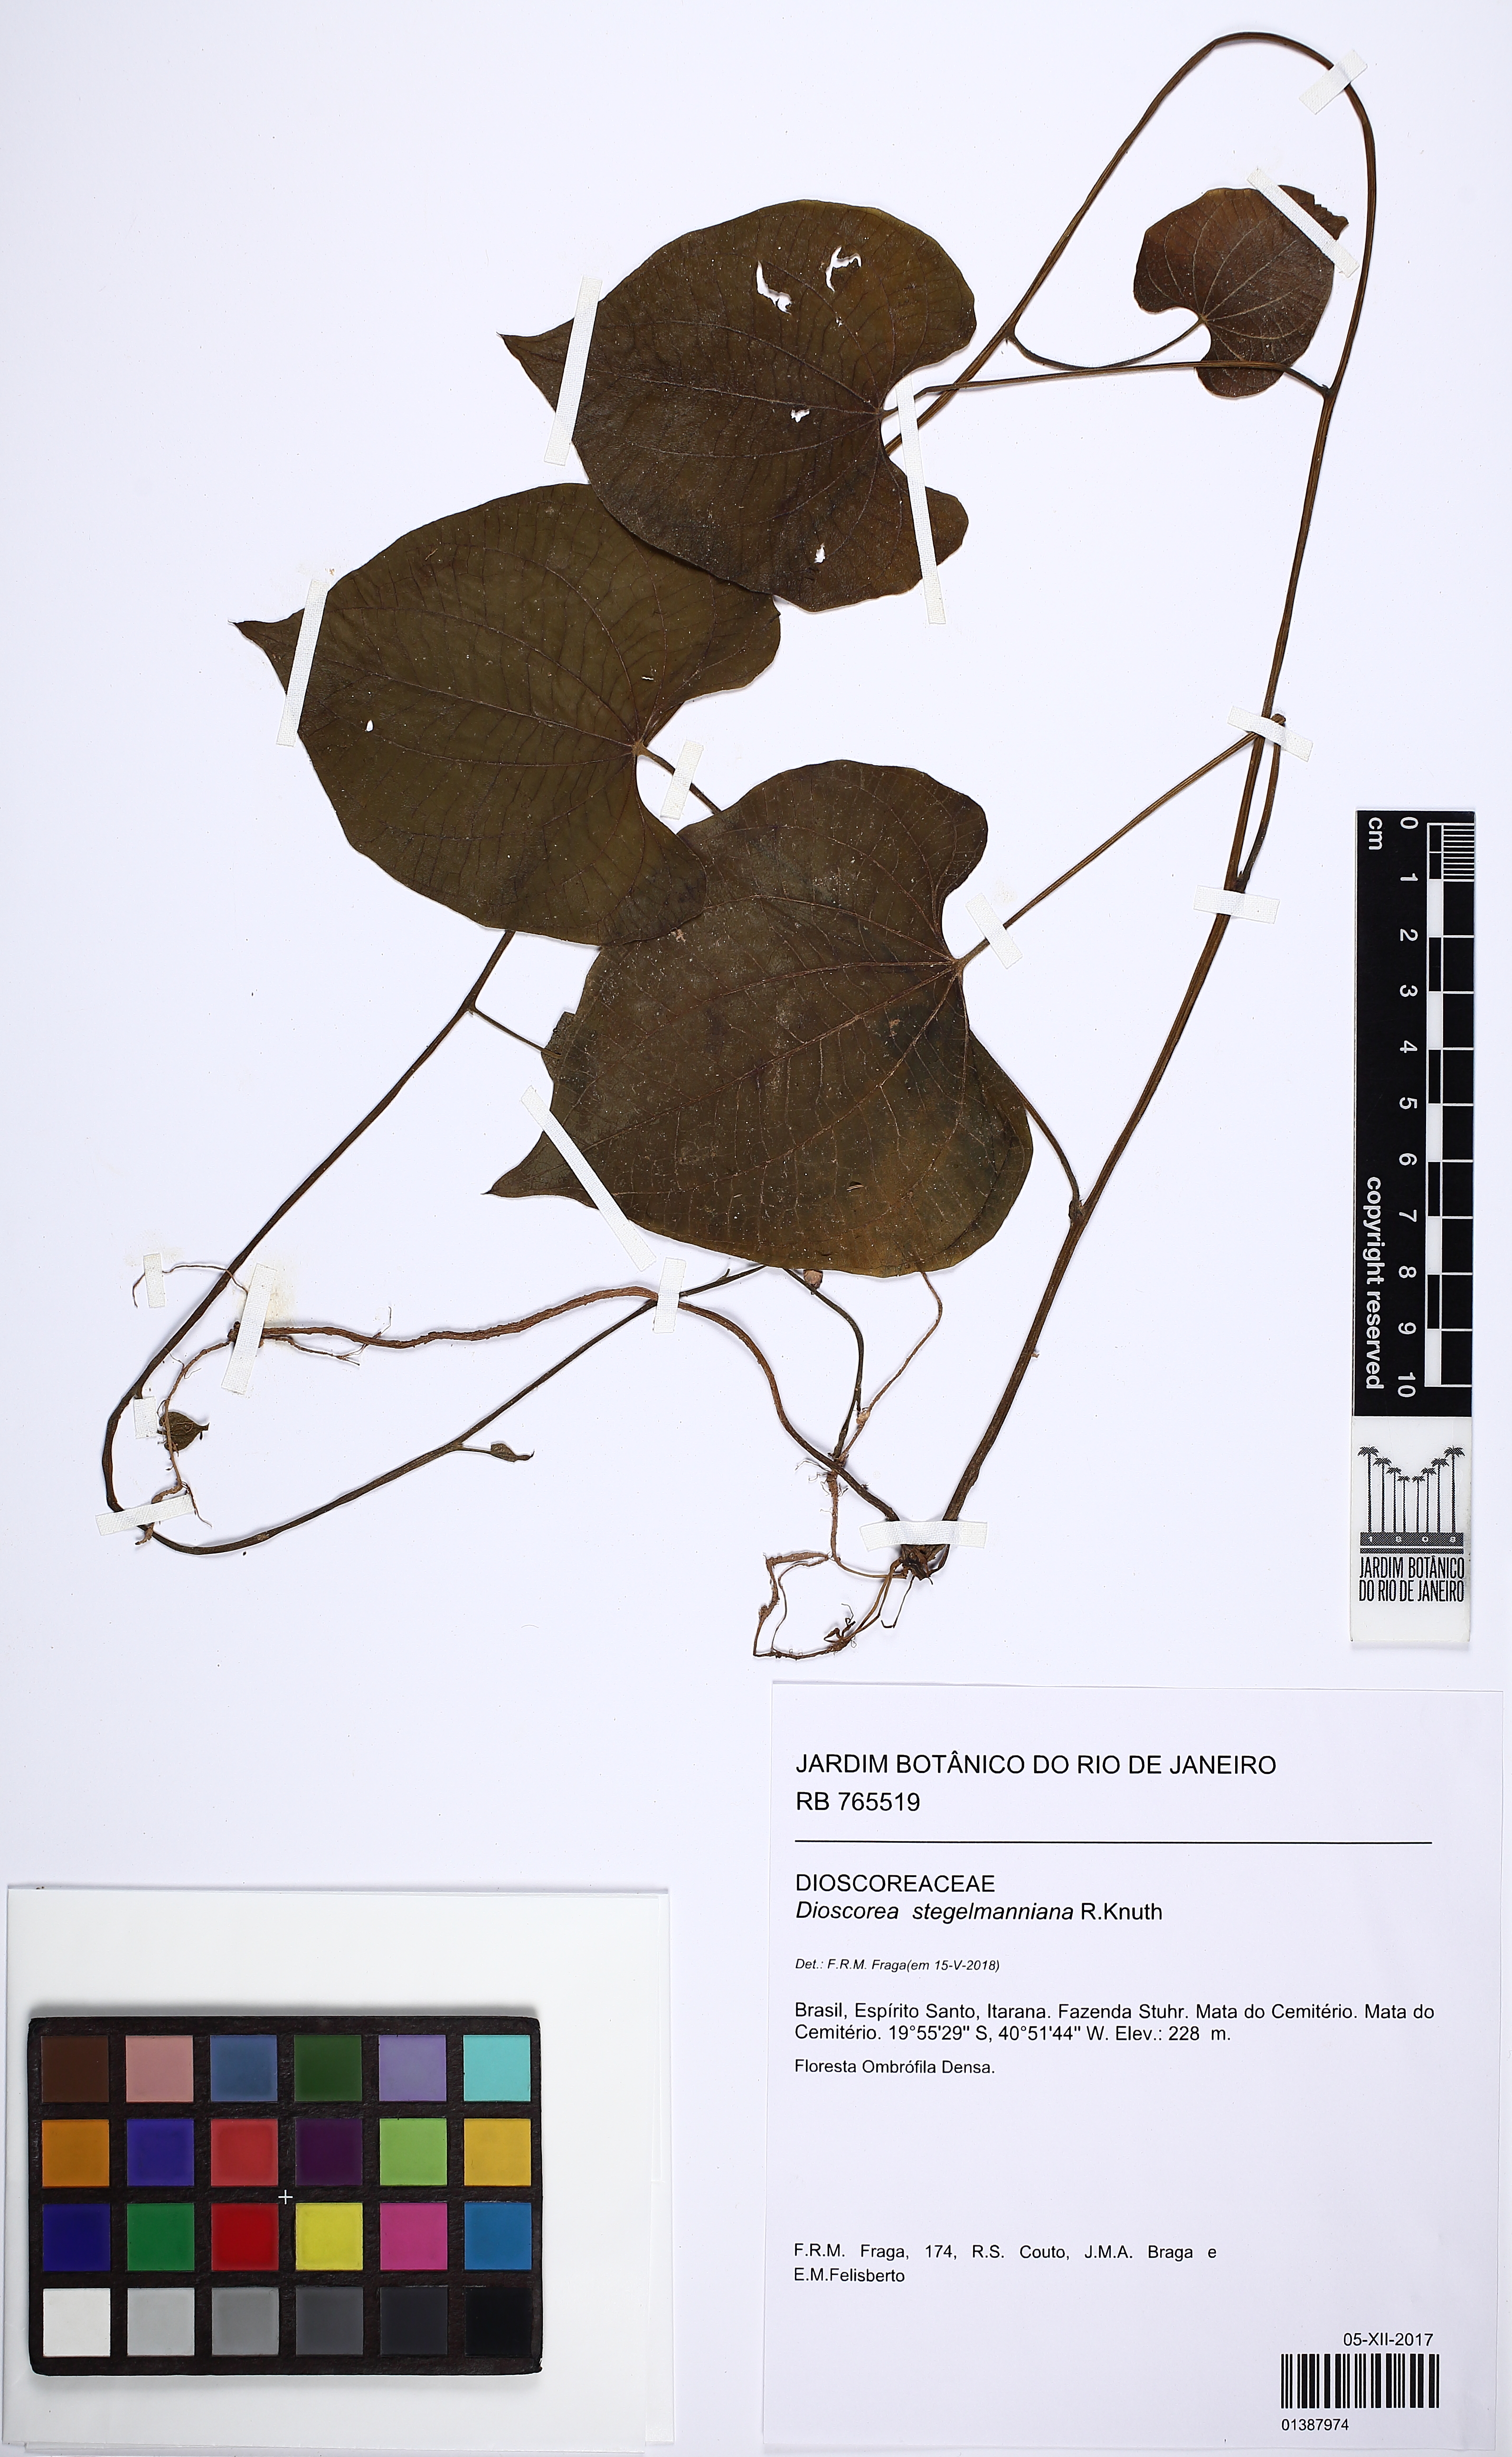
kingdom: Plantae
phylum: Tracheophyta
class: Liliopsida
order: Dioscoreales
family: Dioscoreaceae
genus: Dioscorea
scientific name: Dioscorea stegelmanniana
